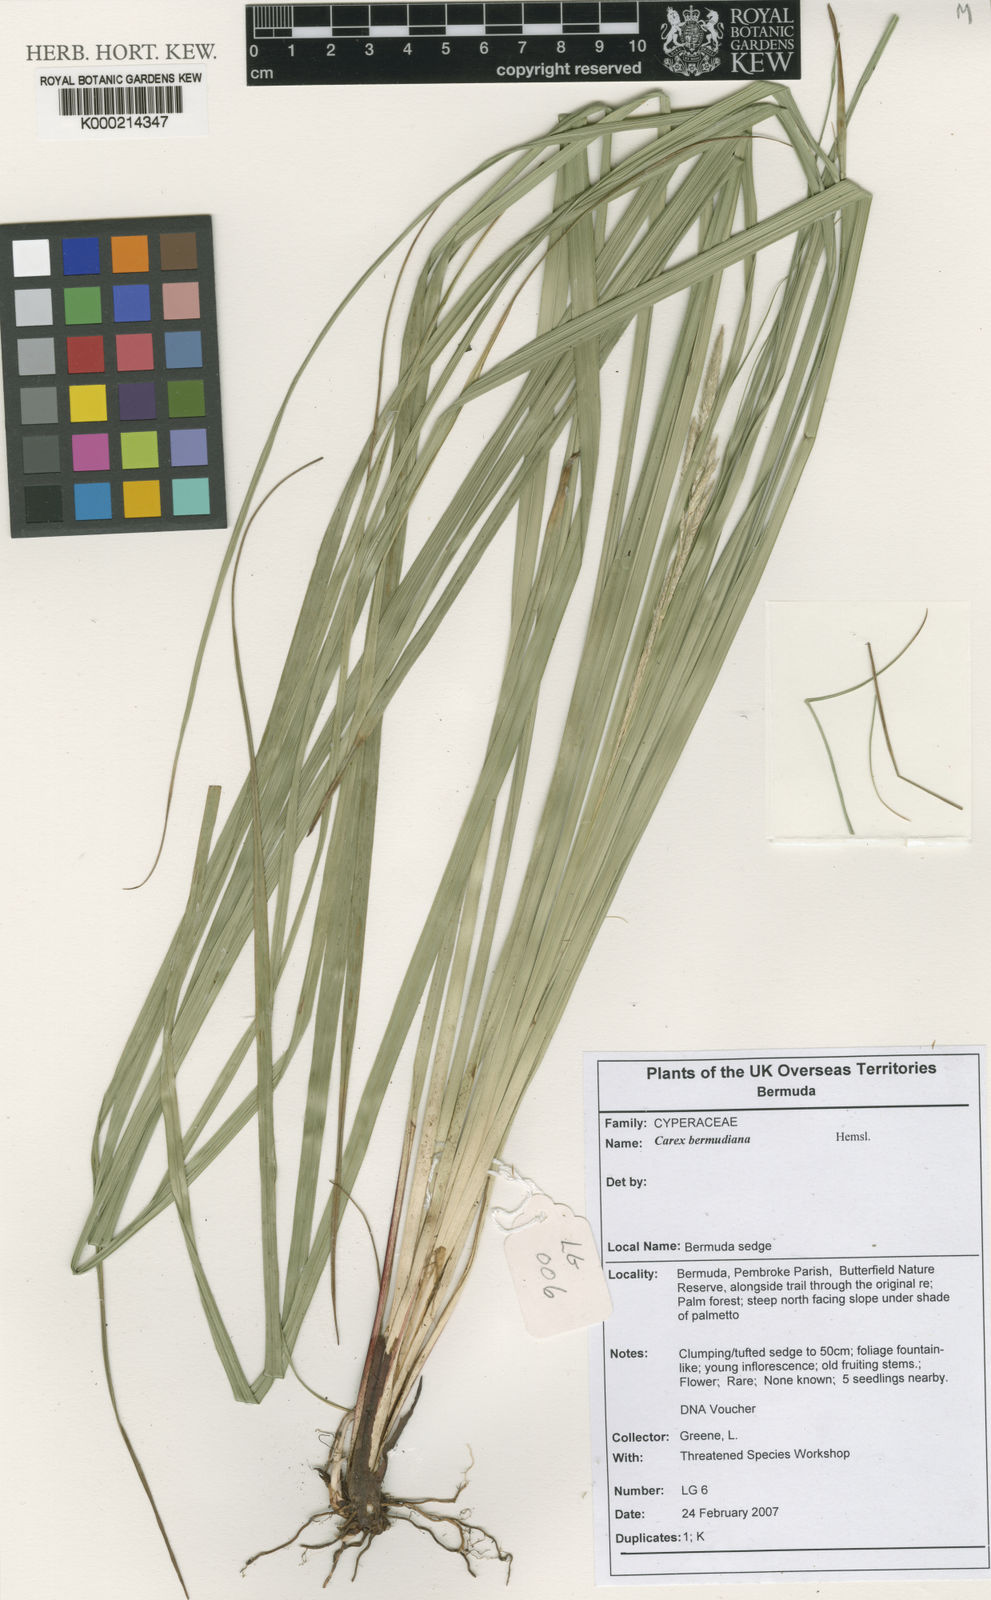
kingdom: Plantae
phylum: Tracheophyta
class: Liliopsida
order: Poales
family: Cyperaceae
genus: Carex
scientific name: Carex bermudiana
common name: Bermuda sedge
